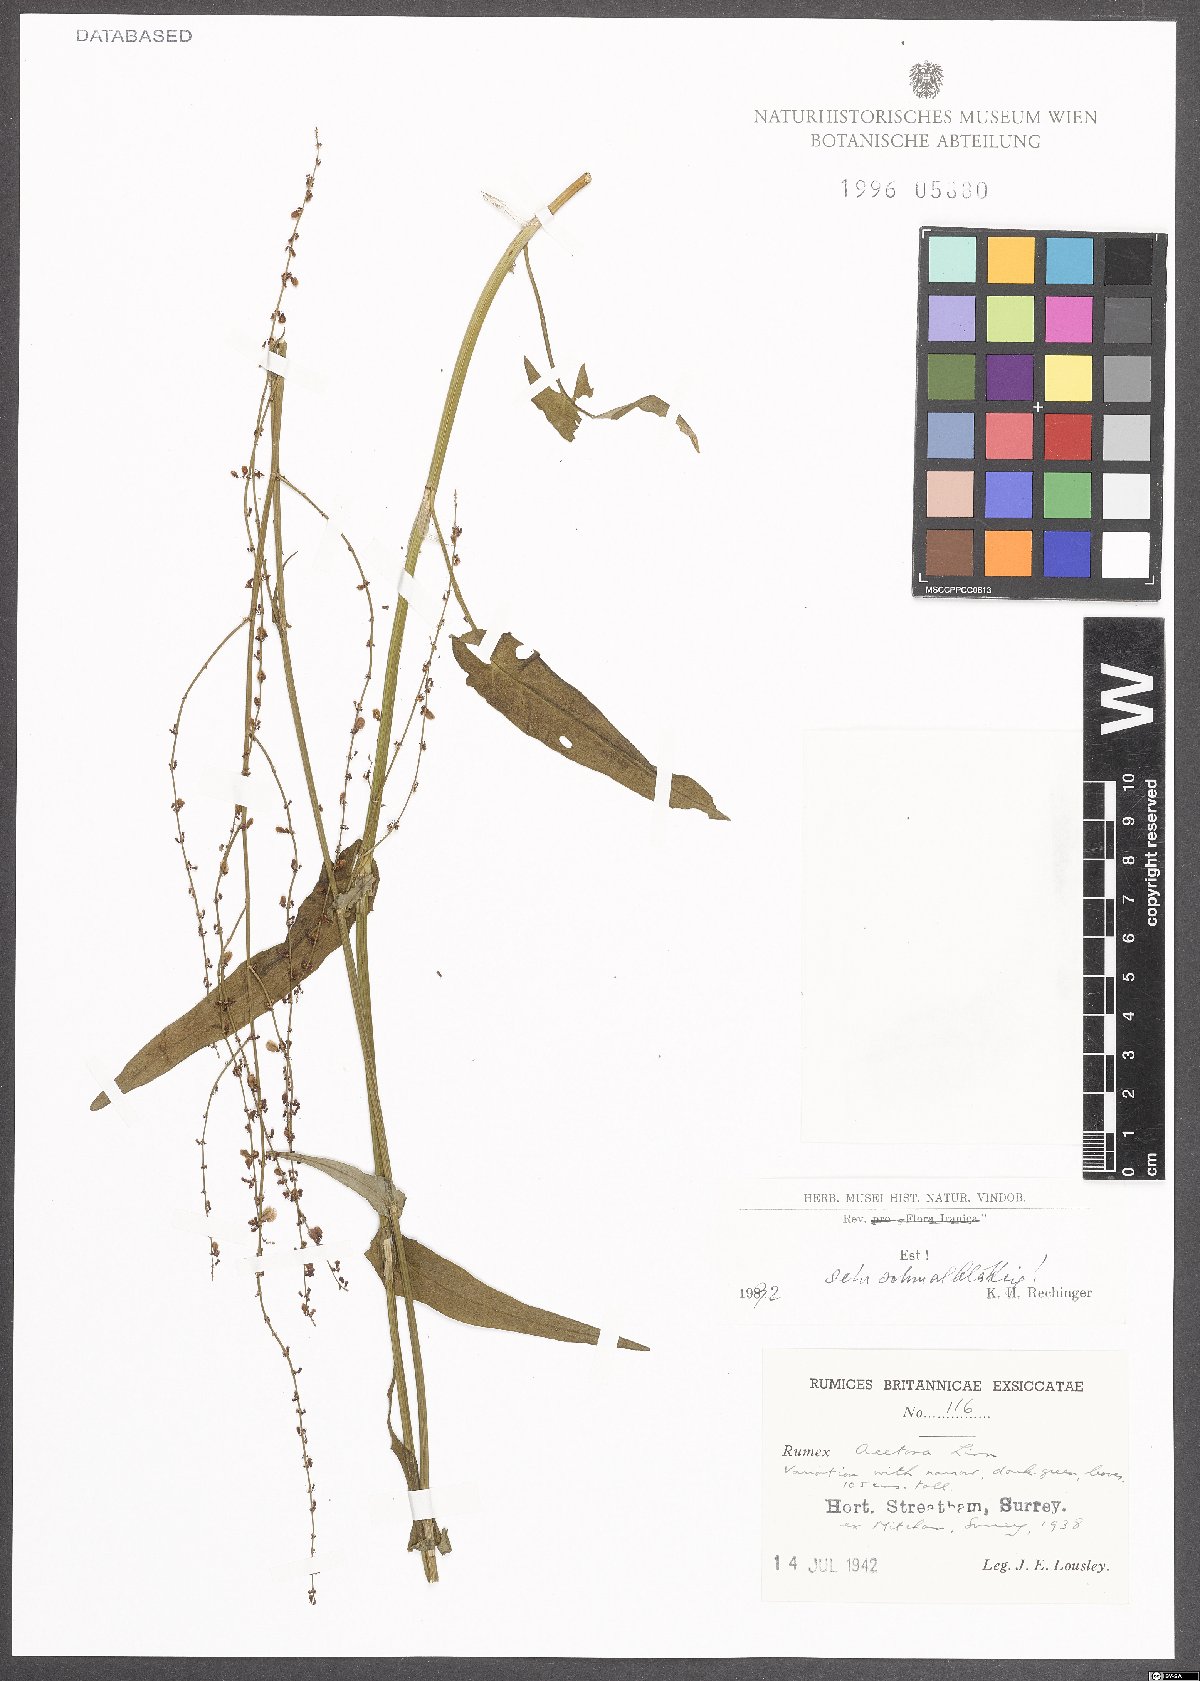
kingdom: Plantae
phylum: Tracheophyta
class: Magnoliopsida
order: Caryophyllales
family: Polygonaceae
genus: Rumex
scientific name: Rumex acetosa
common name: Garden sorrel
